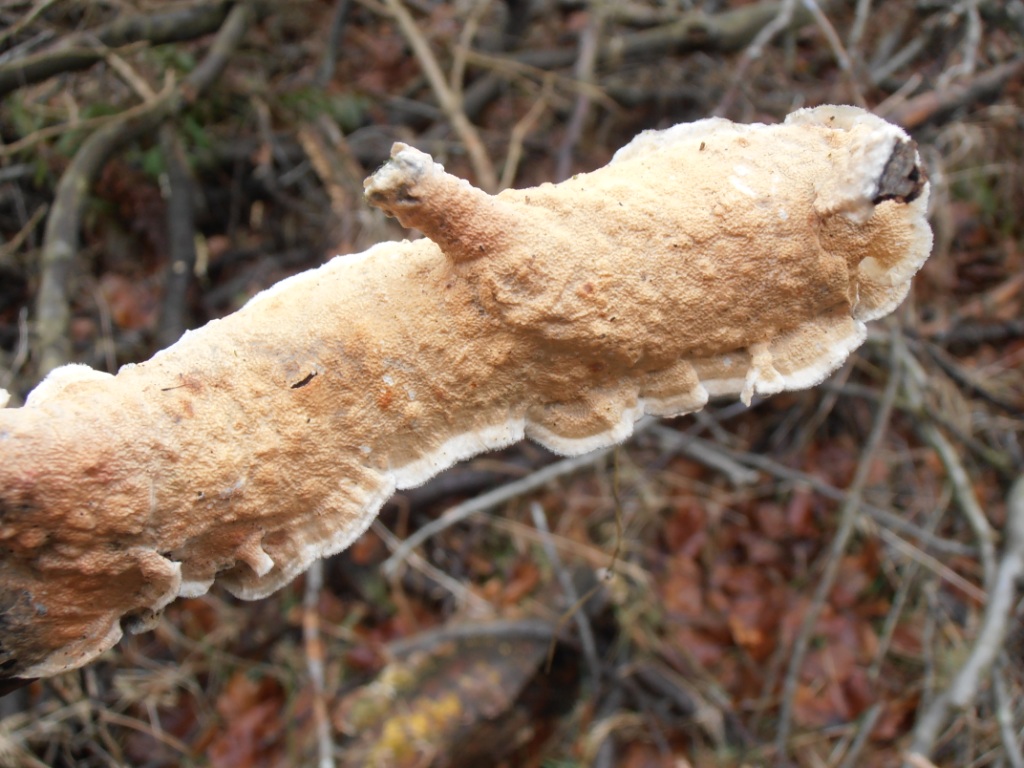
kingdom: Fungi
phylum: Basidiomycota
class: Agaricomycetes
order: Polyporales
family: Irpicaceae
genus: Byssomerulius
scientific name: Byssomerulius corium
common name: læder-åresvamp
